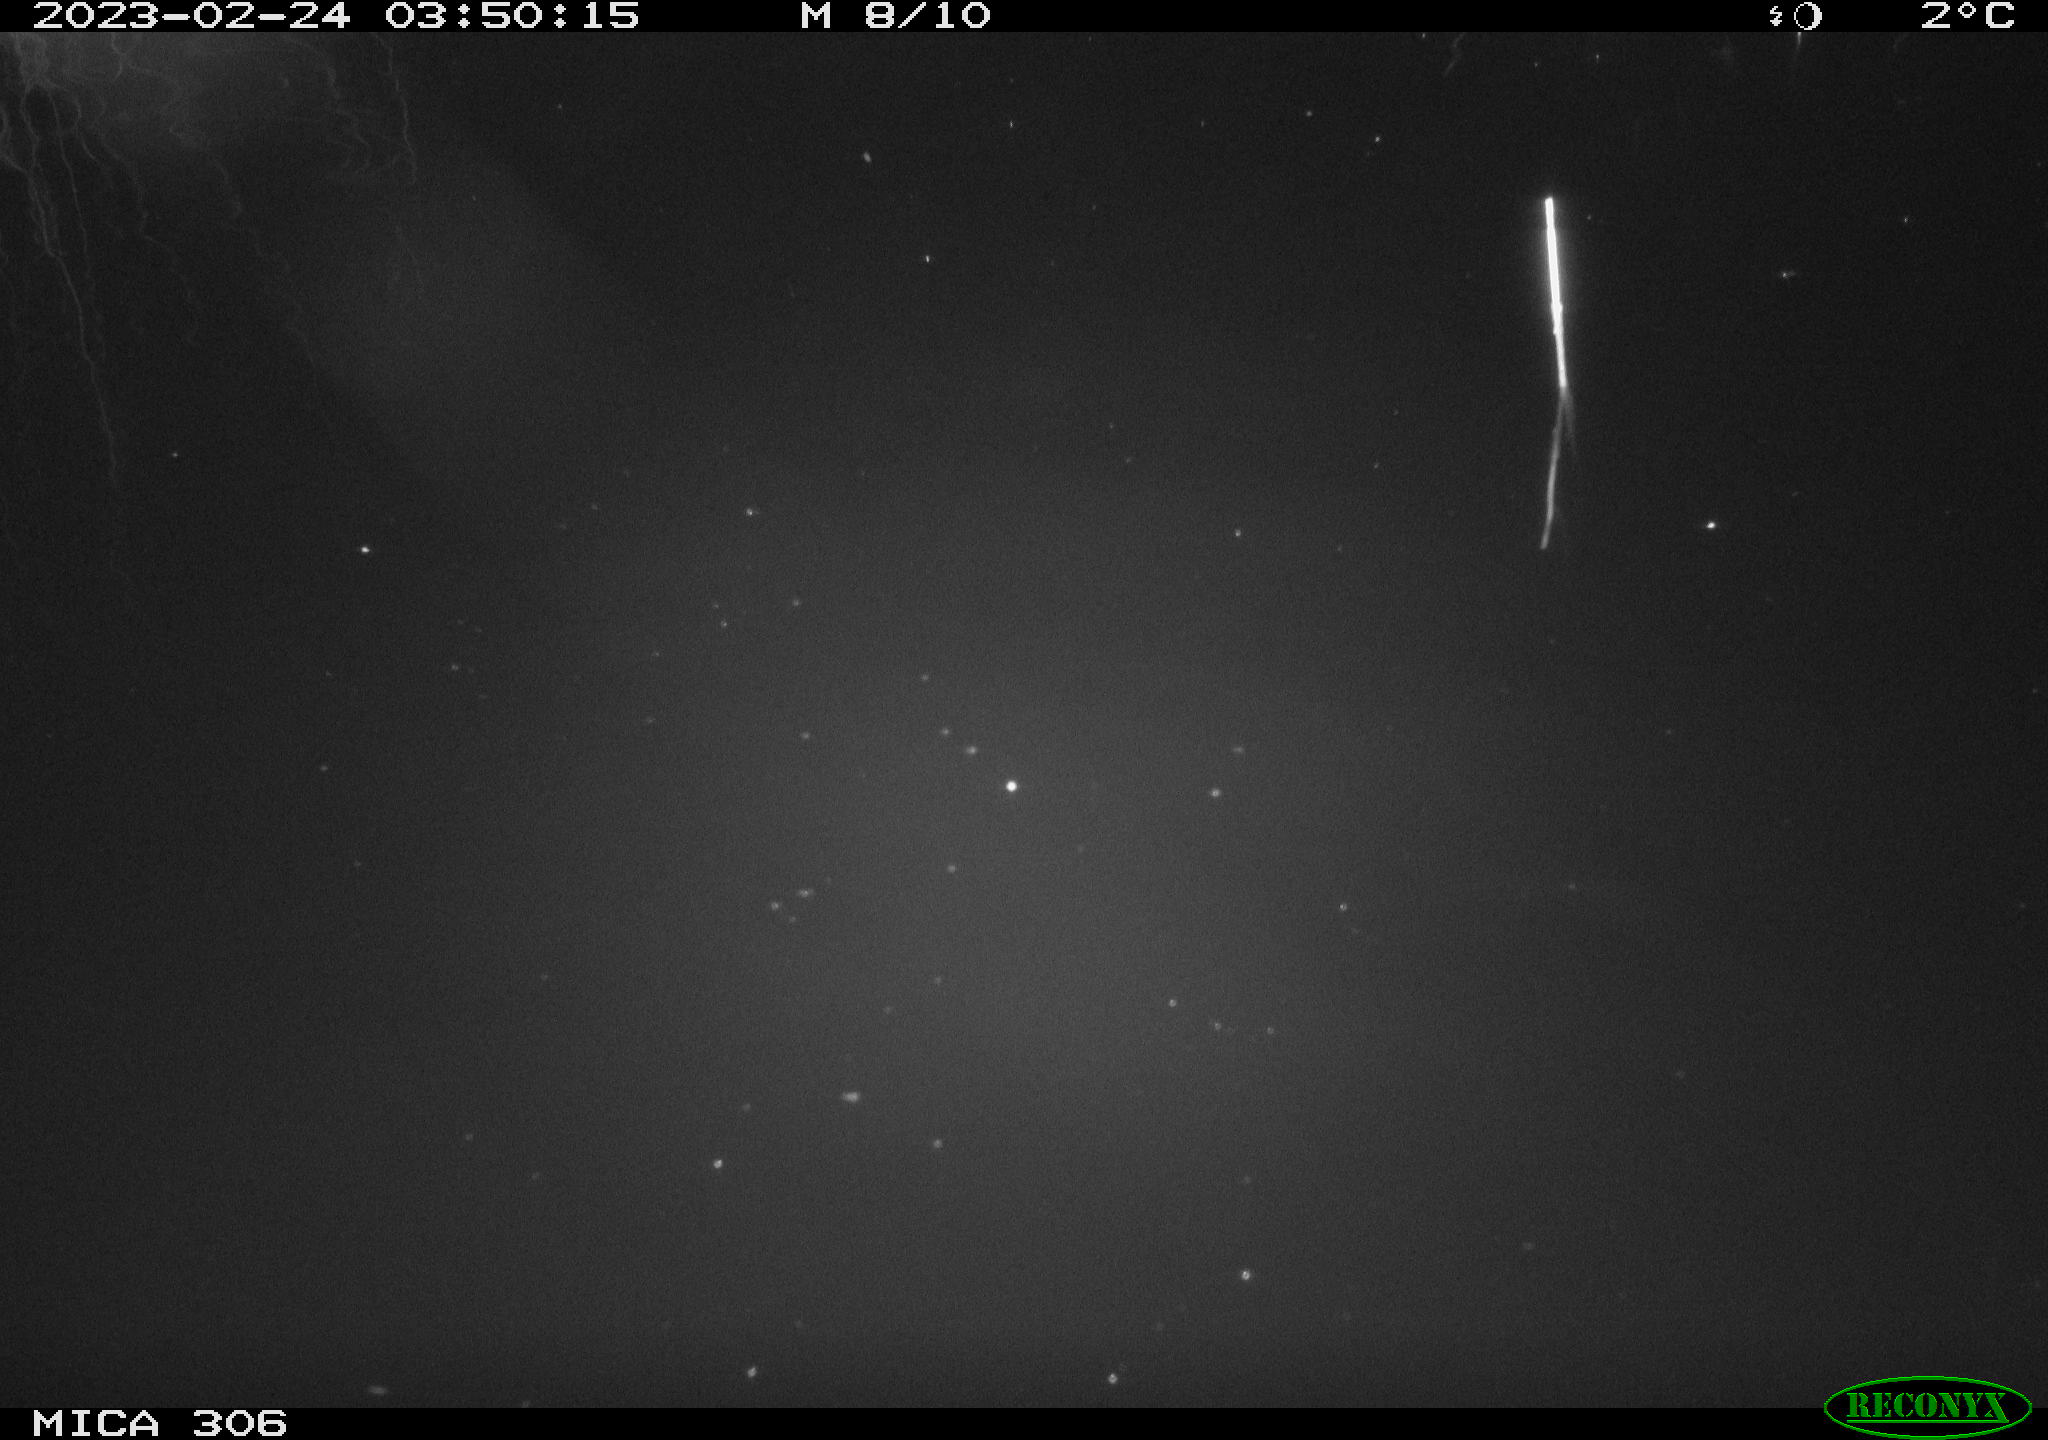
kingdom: Animalia
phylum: Chordata
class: Mammalia
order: Rodentia
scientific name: Rodentia
